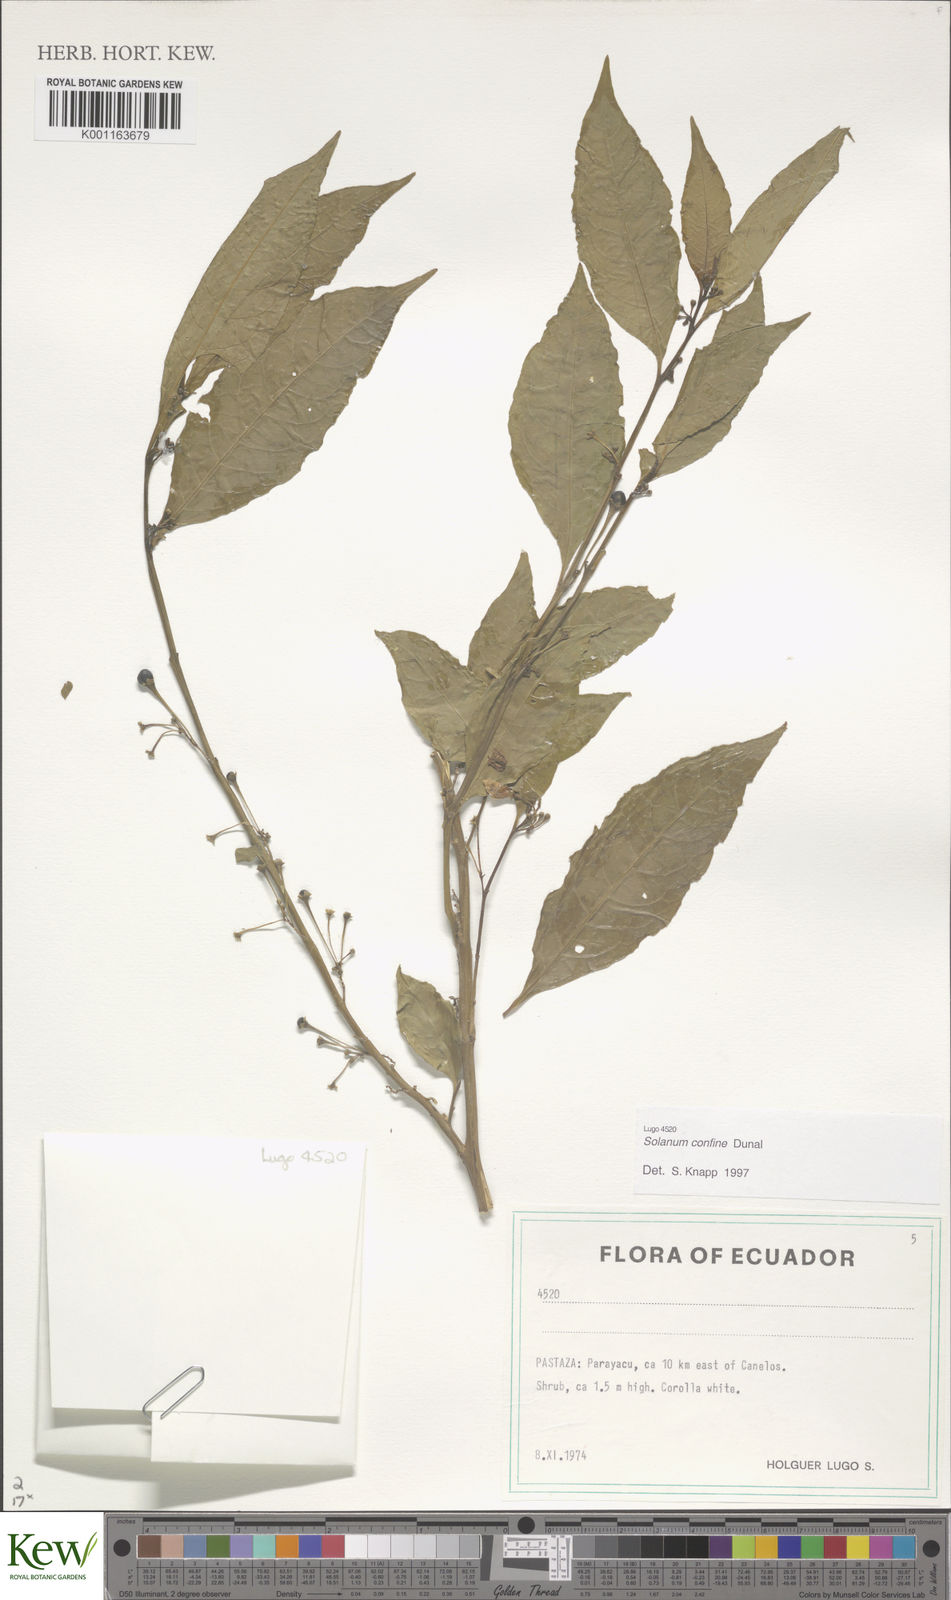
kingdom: Plantae
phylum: Tracheophyta
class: Magnoliopsida
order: Solanales
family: Solanaceae
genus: Solanum
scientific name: Solanum confine
